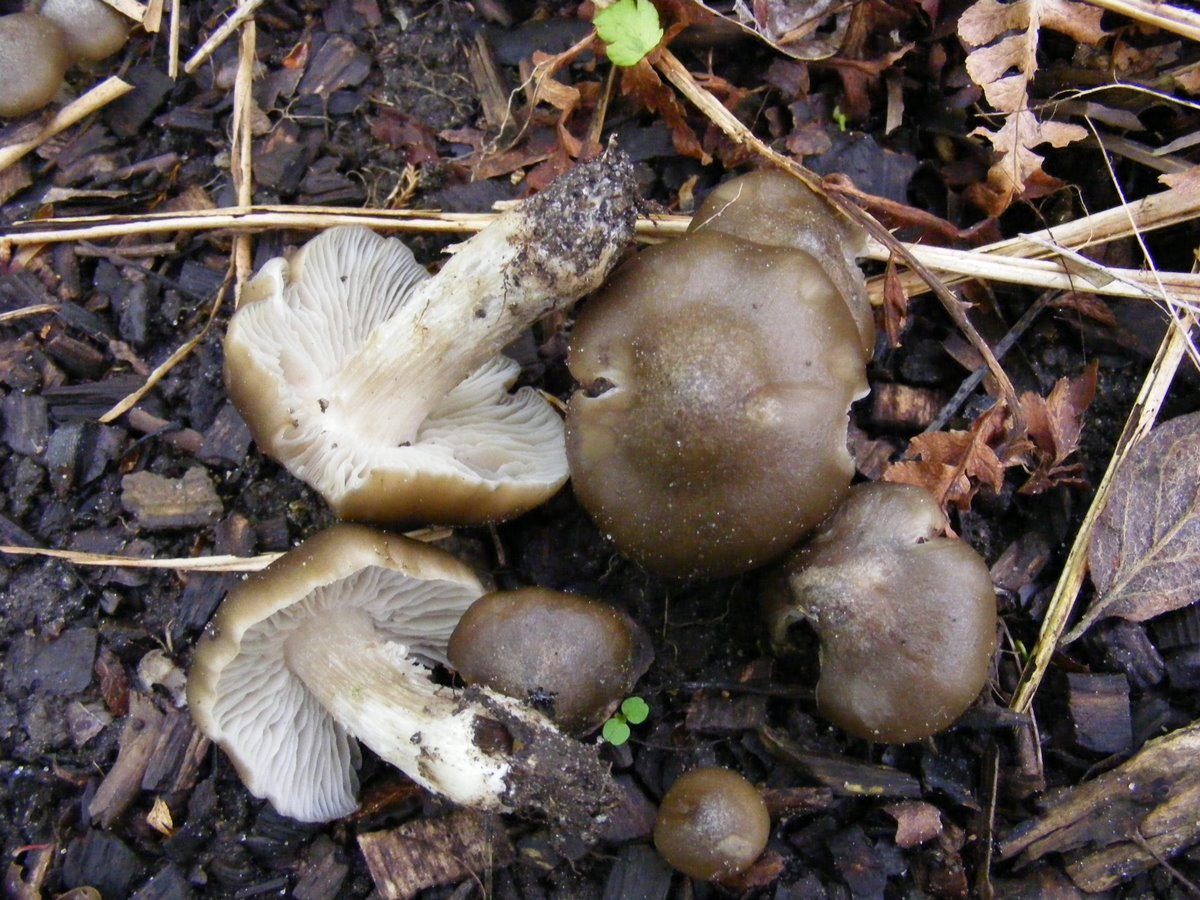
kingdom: Fungi
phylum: Basidiomycota
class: Agaricomycetes
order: Agaricales
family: Entolomataceae
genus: Entoloma
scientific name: Entoloma clypeatum
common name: flammet rødblad
